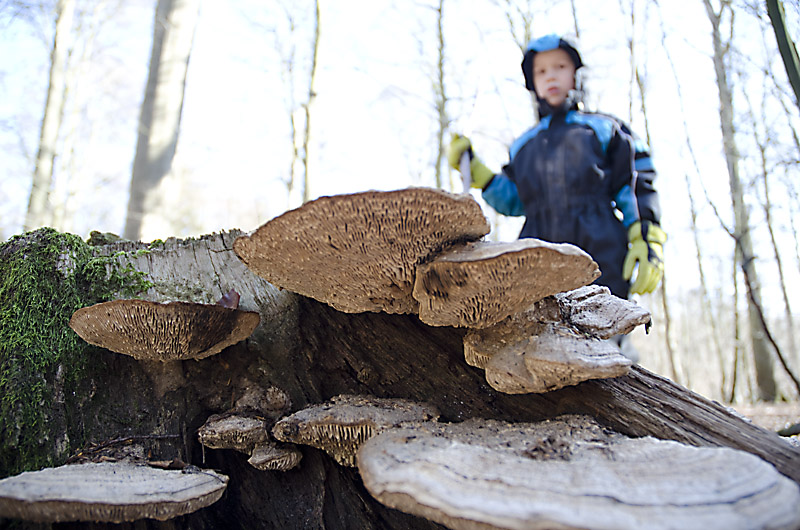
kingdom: Fungi
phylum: Basidiomycota
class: Agaricomycetes
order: Polyporales
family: Fomitopsidaceae
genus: Daedalea
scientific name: Daedalea quercina
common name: ege-labyrintsvamp
